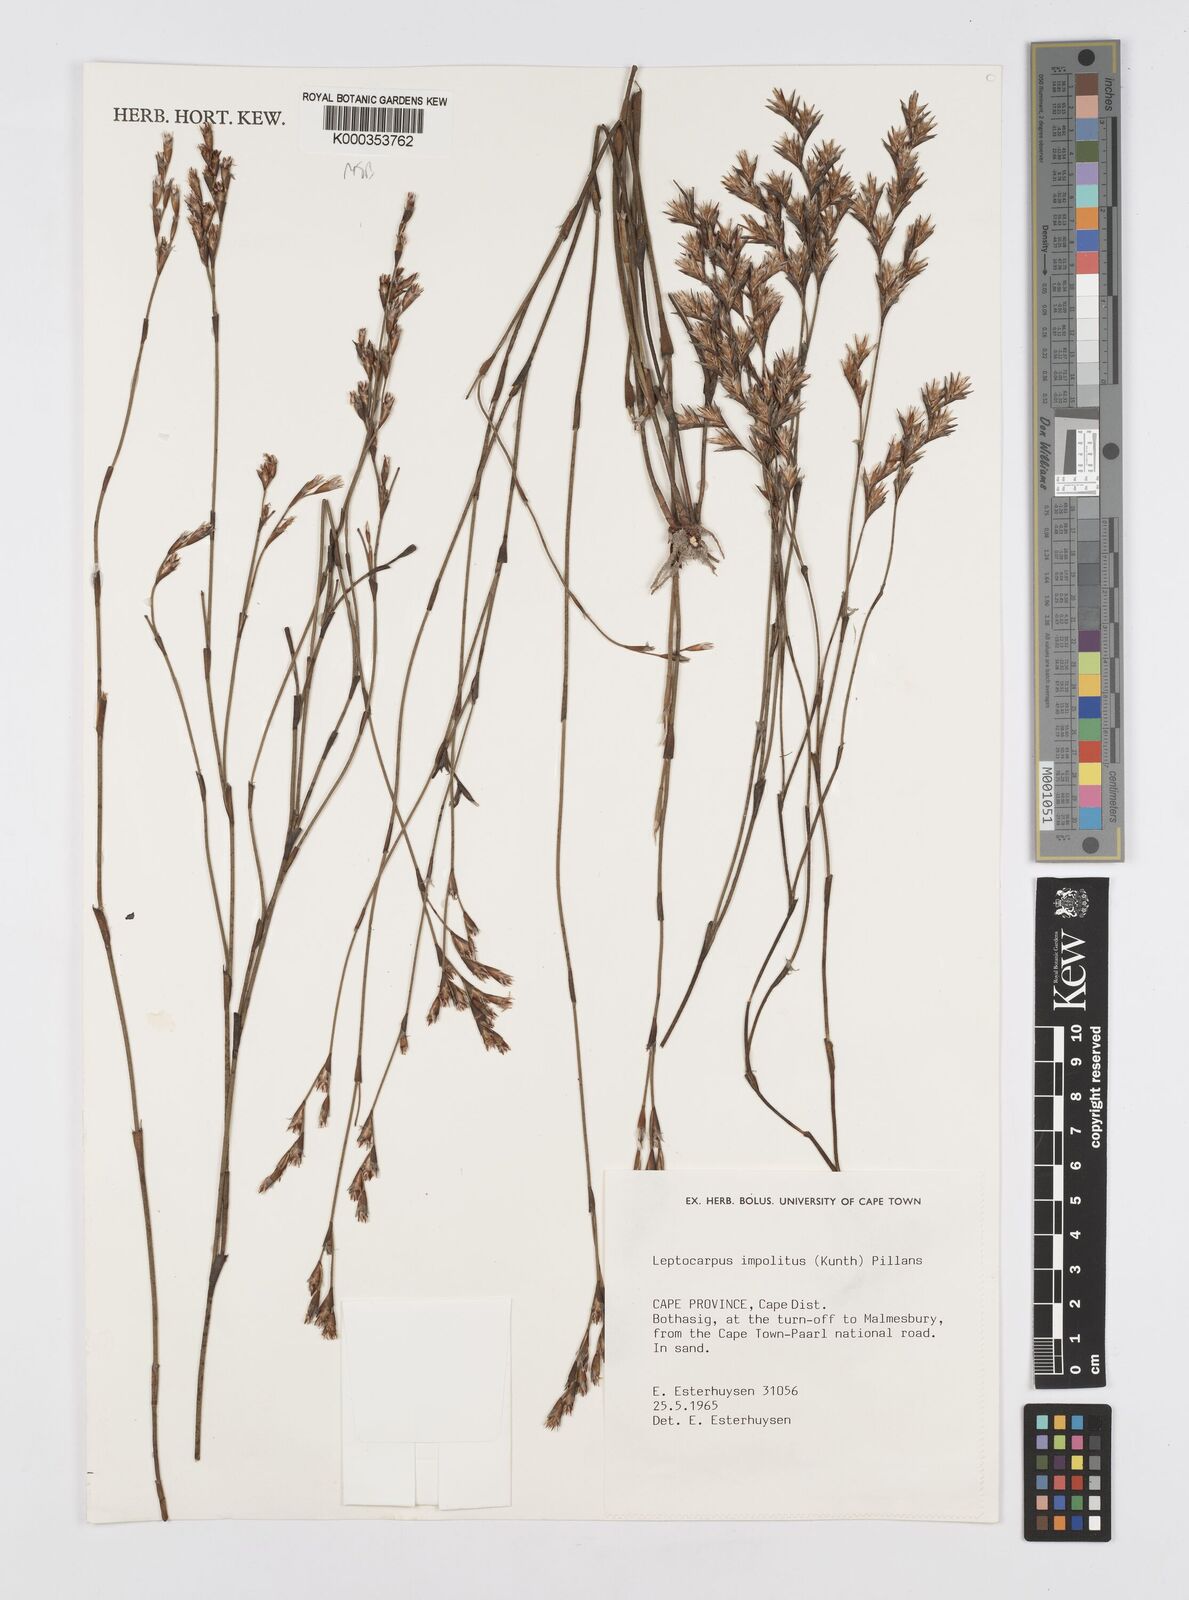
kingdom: Plantae
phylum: Tracheophyta
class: Liliopsida
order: Poales
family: Restionaceae
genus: Restio
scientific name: Restio impolitus
